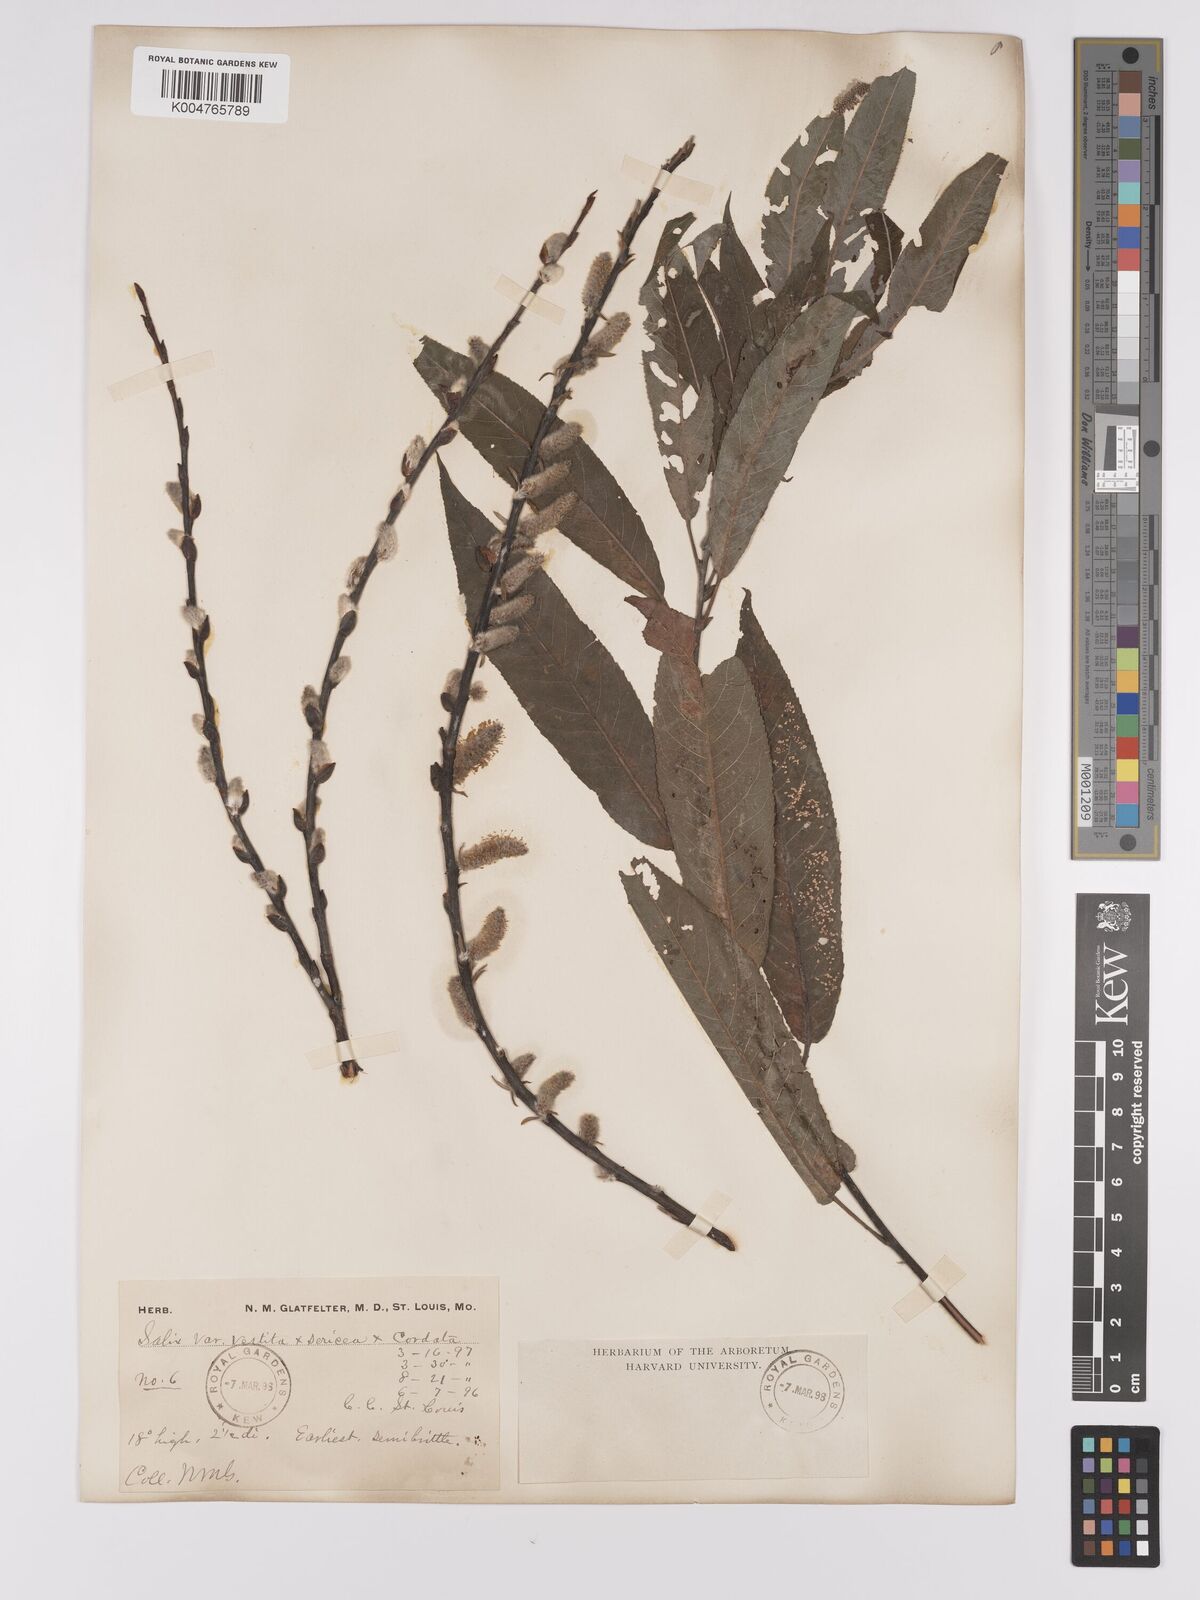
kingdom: Plantae
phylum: Tracheophyta
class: Magnoliopsida
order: Malpighiales
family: Salicaceae
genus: Salix
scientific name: Salix vestita
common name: Hairy willow
